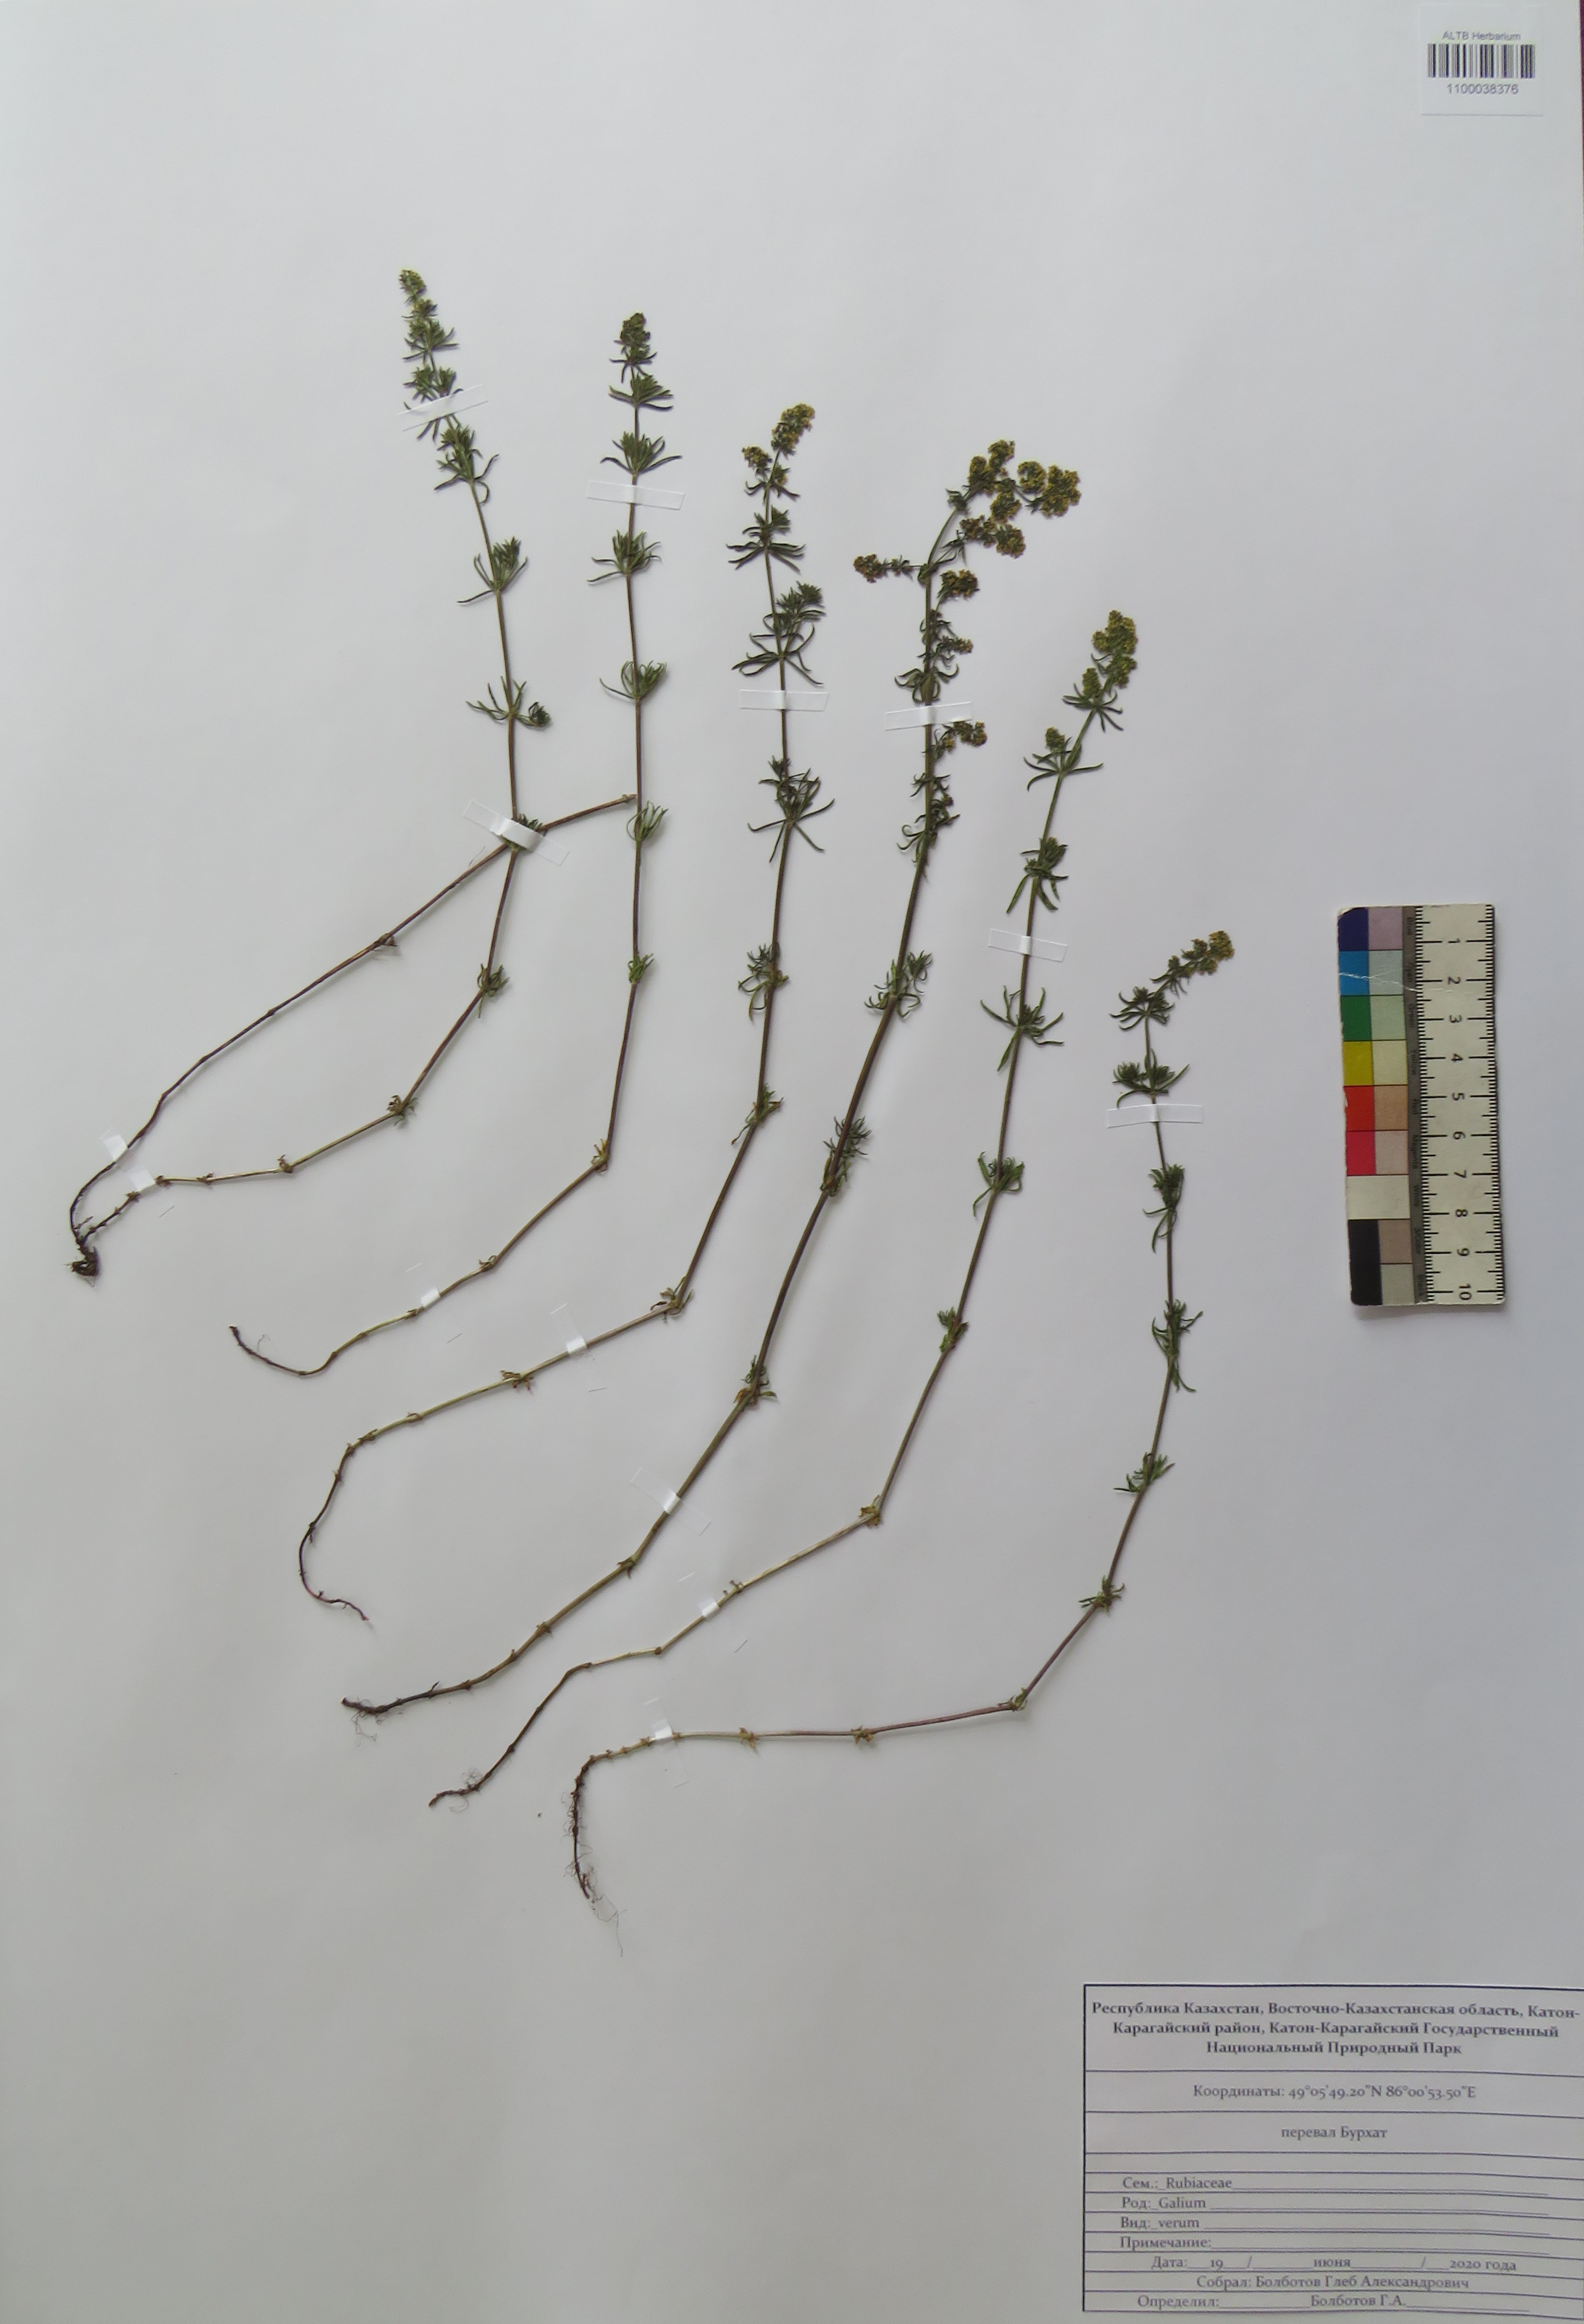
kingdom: Plantae
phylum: Tracheophyta
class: Magnoliopsida
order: Gentianales
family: Rubiaceae
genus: Galium
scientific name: Galium verum
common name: Lady's bedstraw
